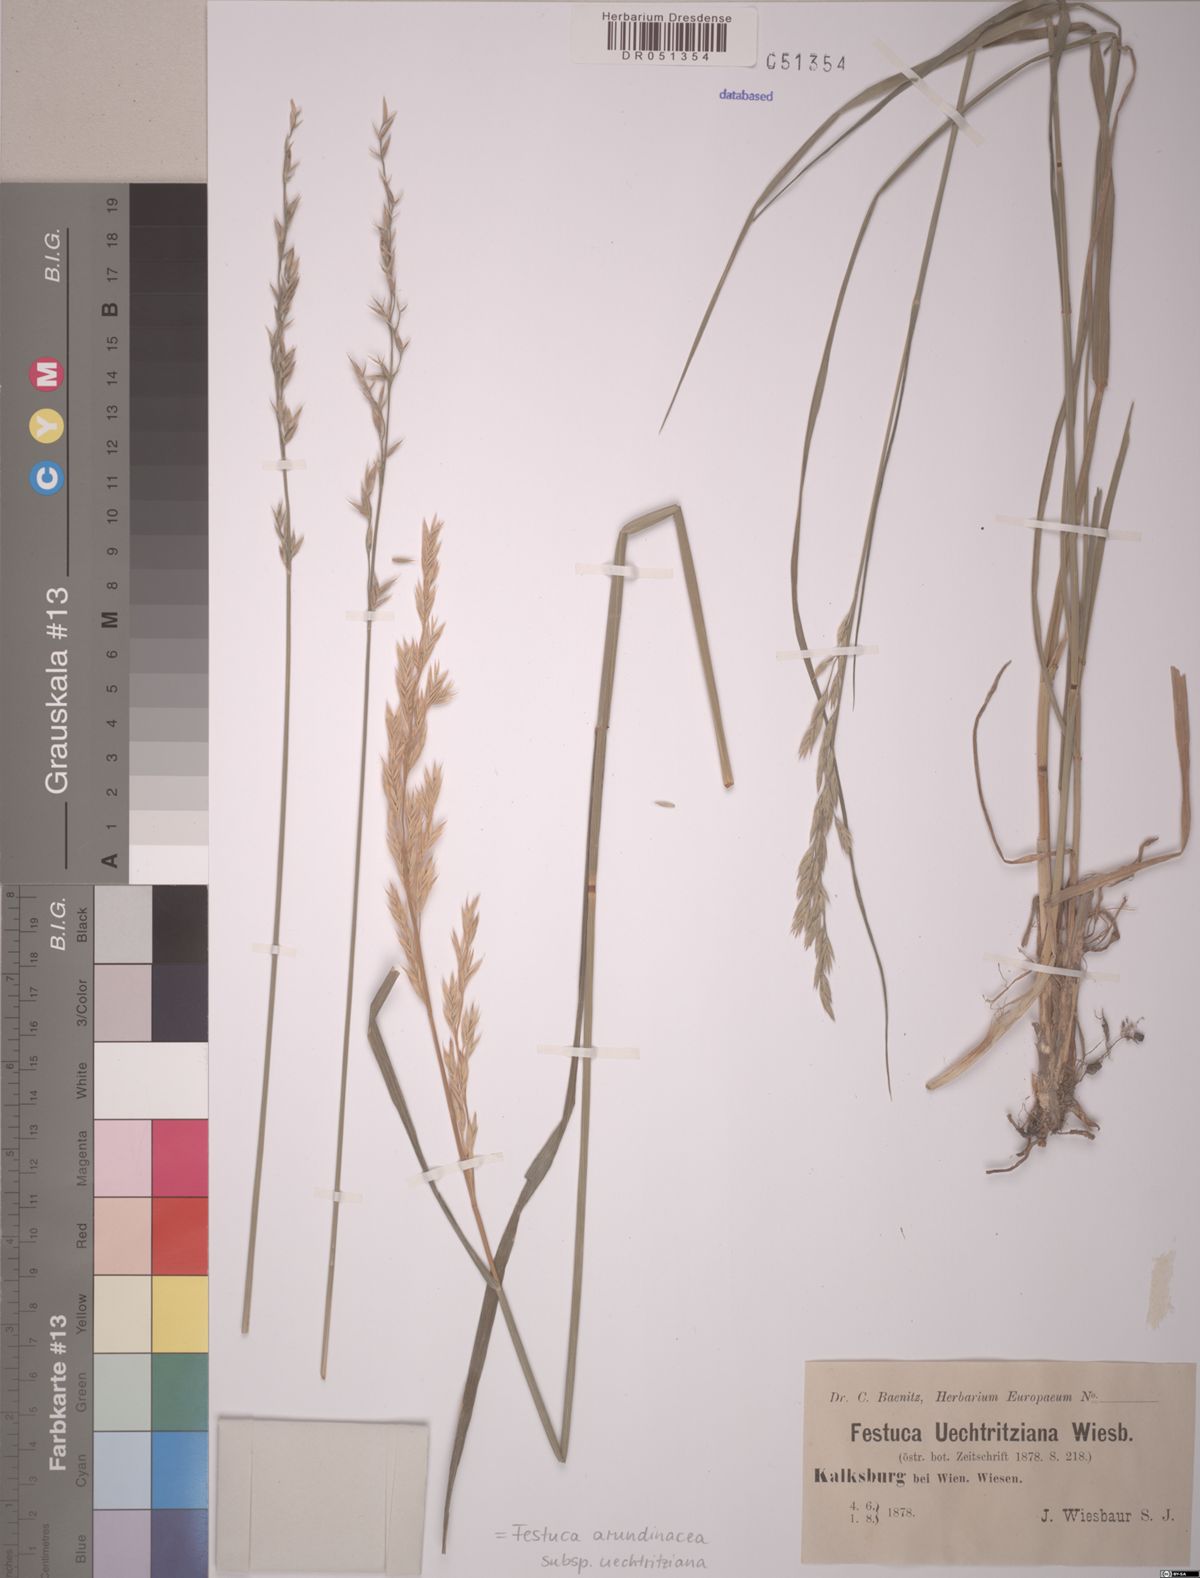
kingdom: Plantae
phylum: Tracheophyta
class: Liliopsida
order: Poales
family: Poaceae
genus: Lolium
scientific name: Lolium arundinaceum
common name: Reed fescue
